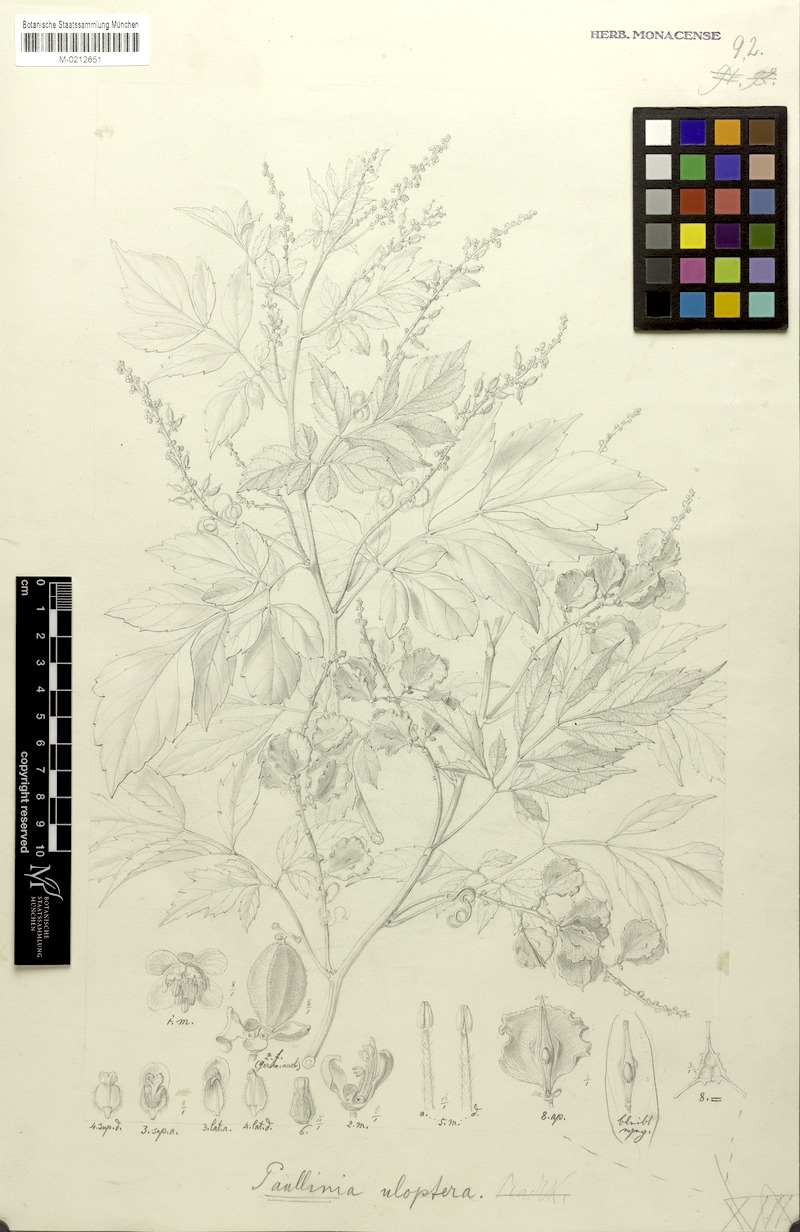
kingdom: Plantae
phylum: Tracheophyta
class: Magnoliopsida
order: Sapindales
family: Sapindaceae
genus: Paullinia
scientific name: Paullinia uloptera
